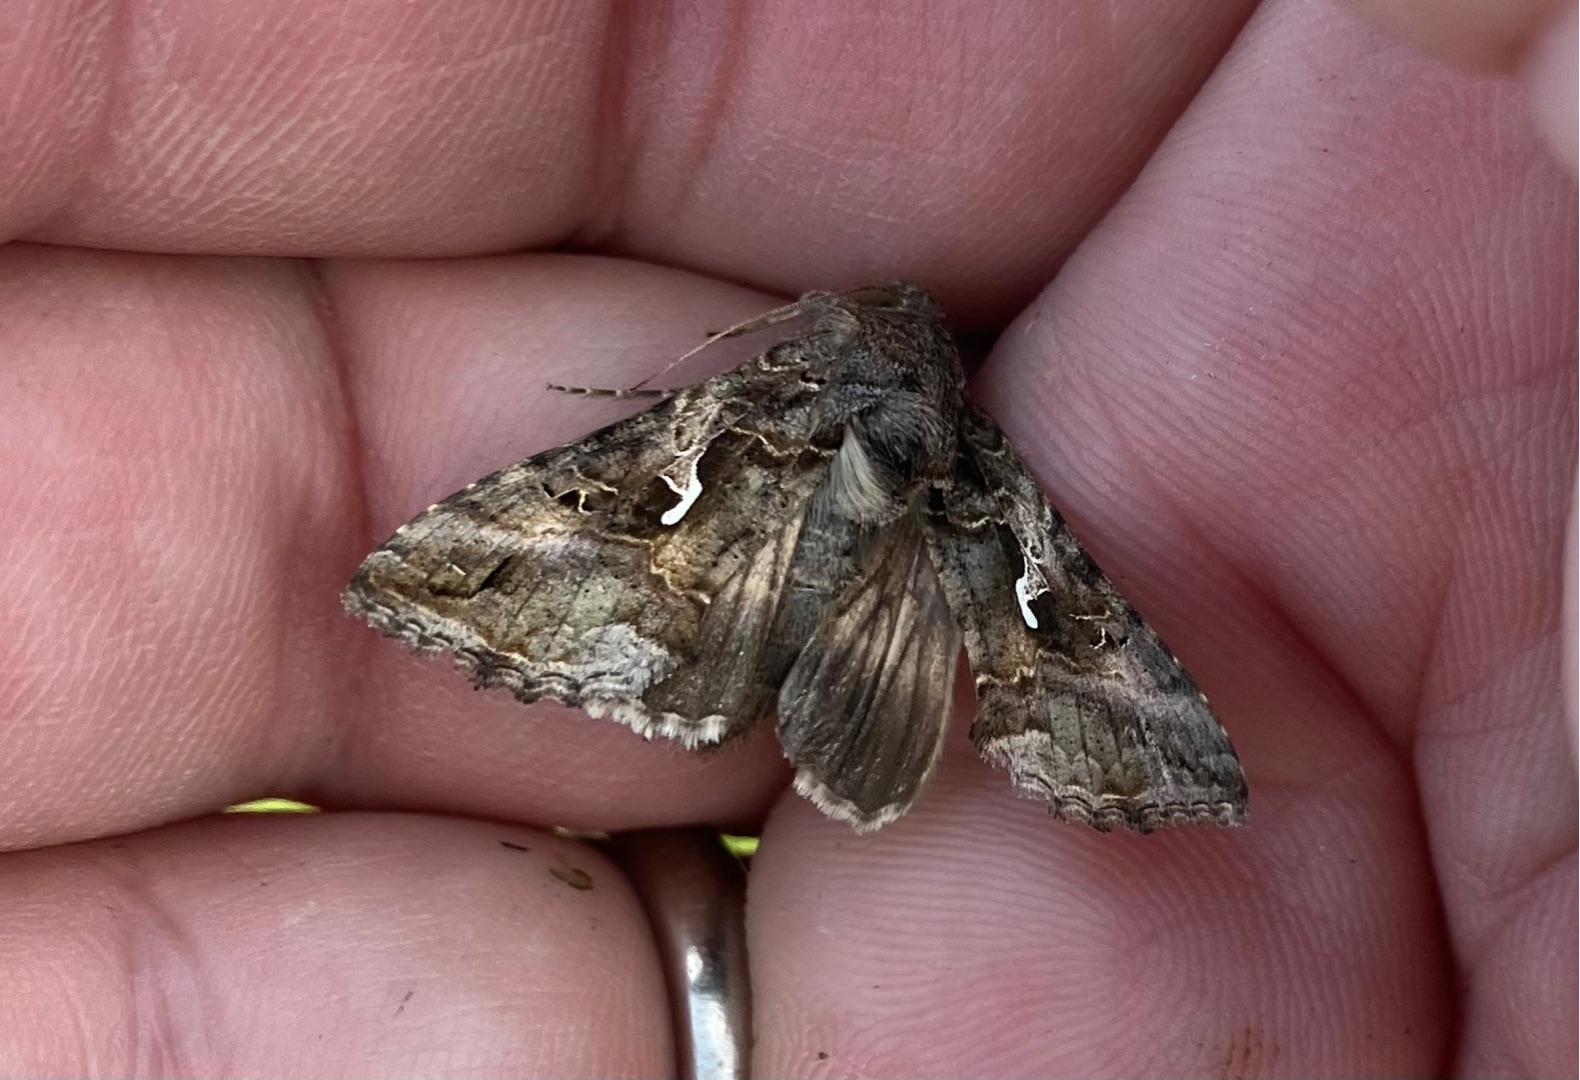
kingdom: Animalia
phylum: Arthropoda
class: Insecta
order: Lepidoptera
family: Noctuidae
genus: Autographa
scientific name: Autographa gamma
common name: Gammaugle
